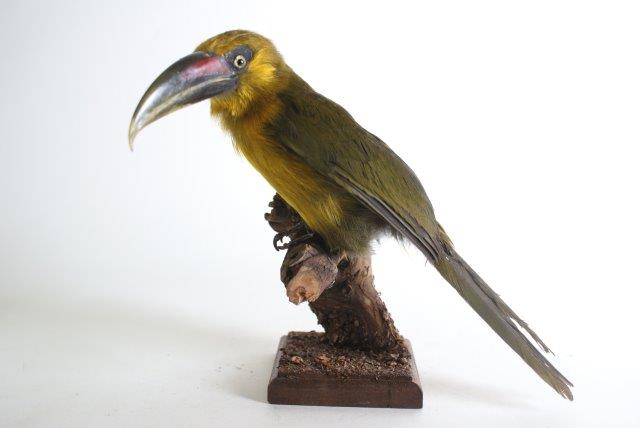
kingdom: Animalia
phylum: Chordata
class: Aves
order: Piciformes
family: Ramphastidae
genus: Pteroglossus
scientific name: Pteroglossus bailloni
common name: Saffron toucanet
